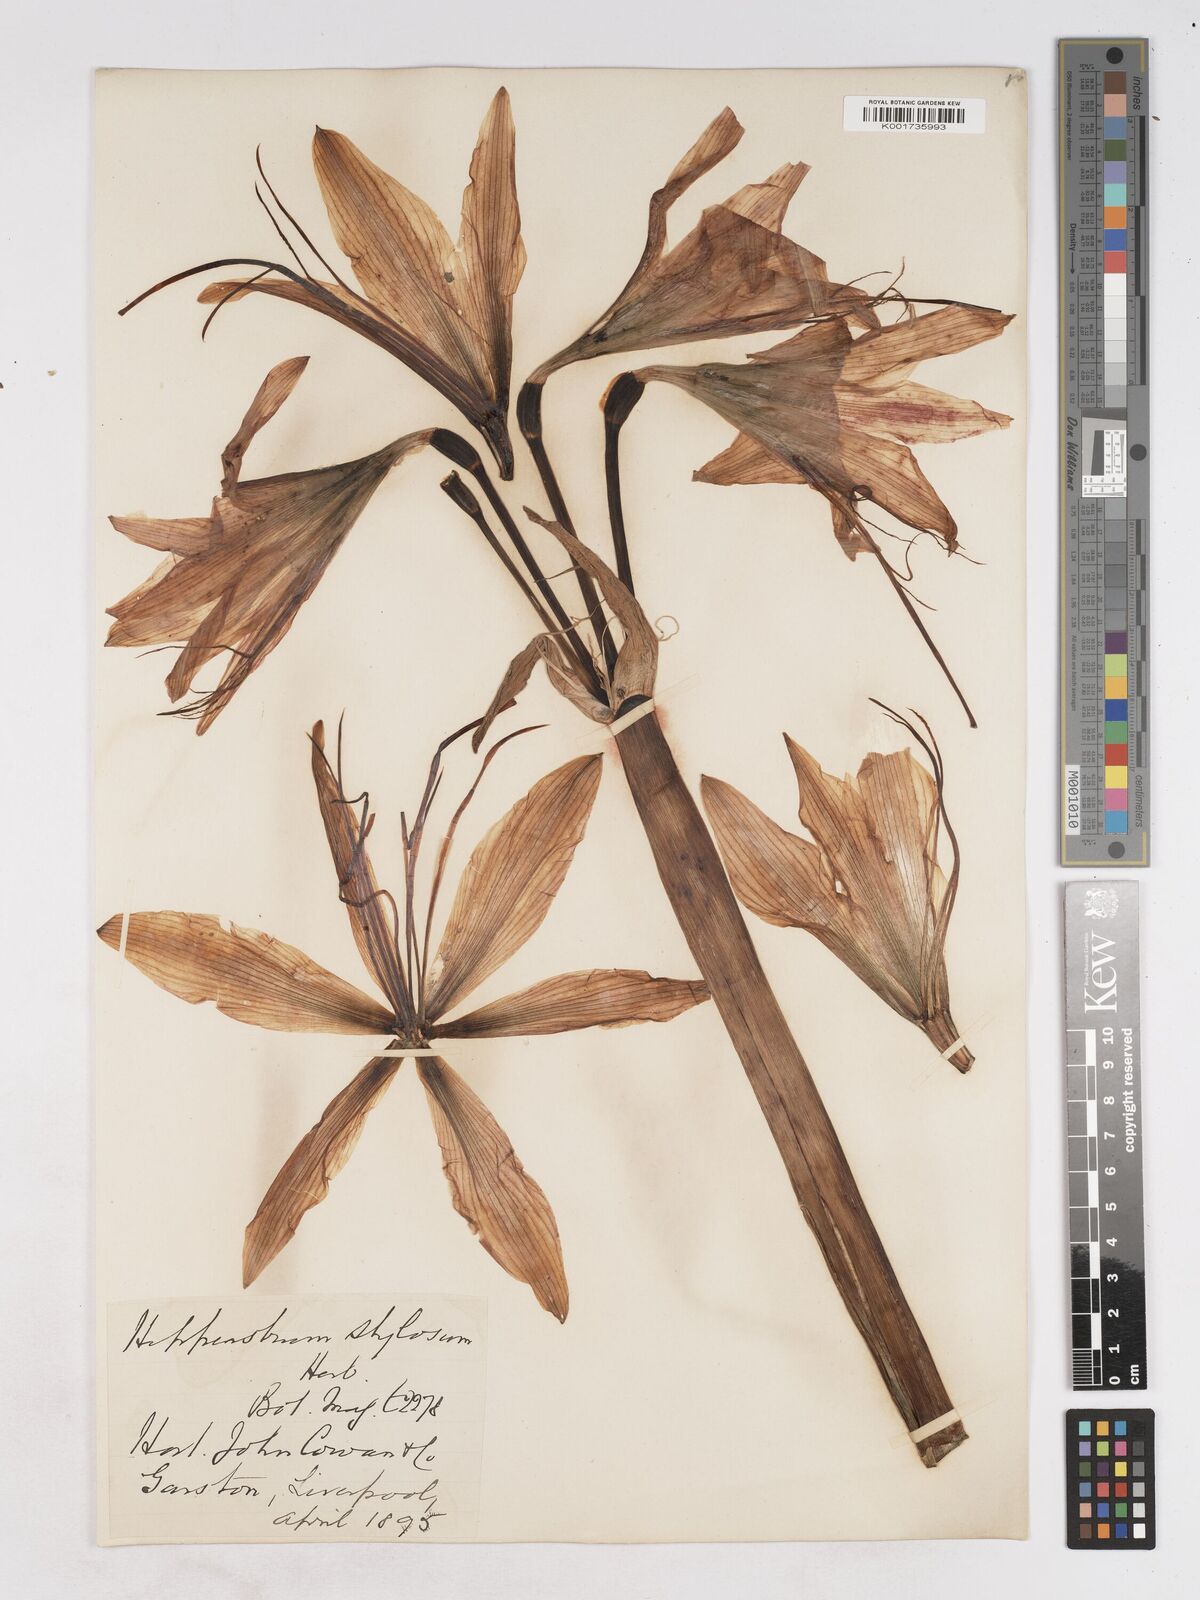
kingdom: Plantae
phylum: Tracheophyta
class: Liliopsida
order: Asparagales
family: Amaryllidaceae
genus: Hippeastrum
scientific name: Hippeastrum stylosum
